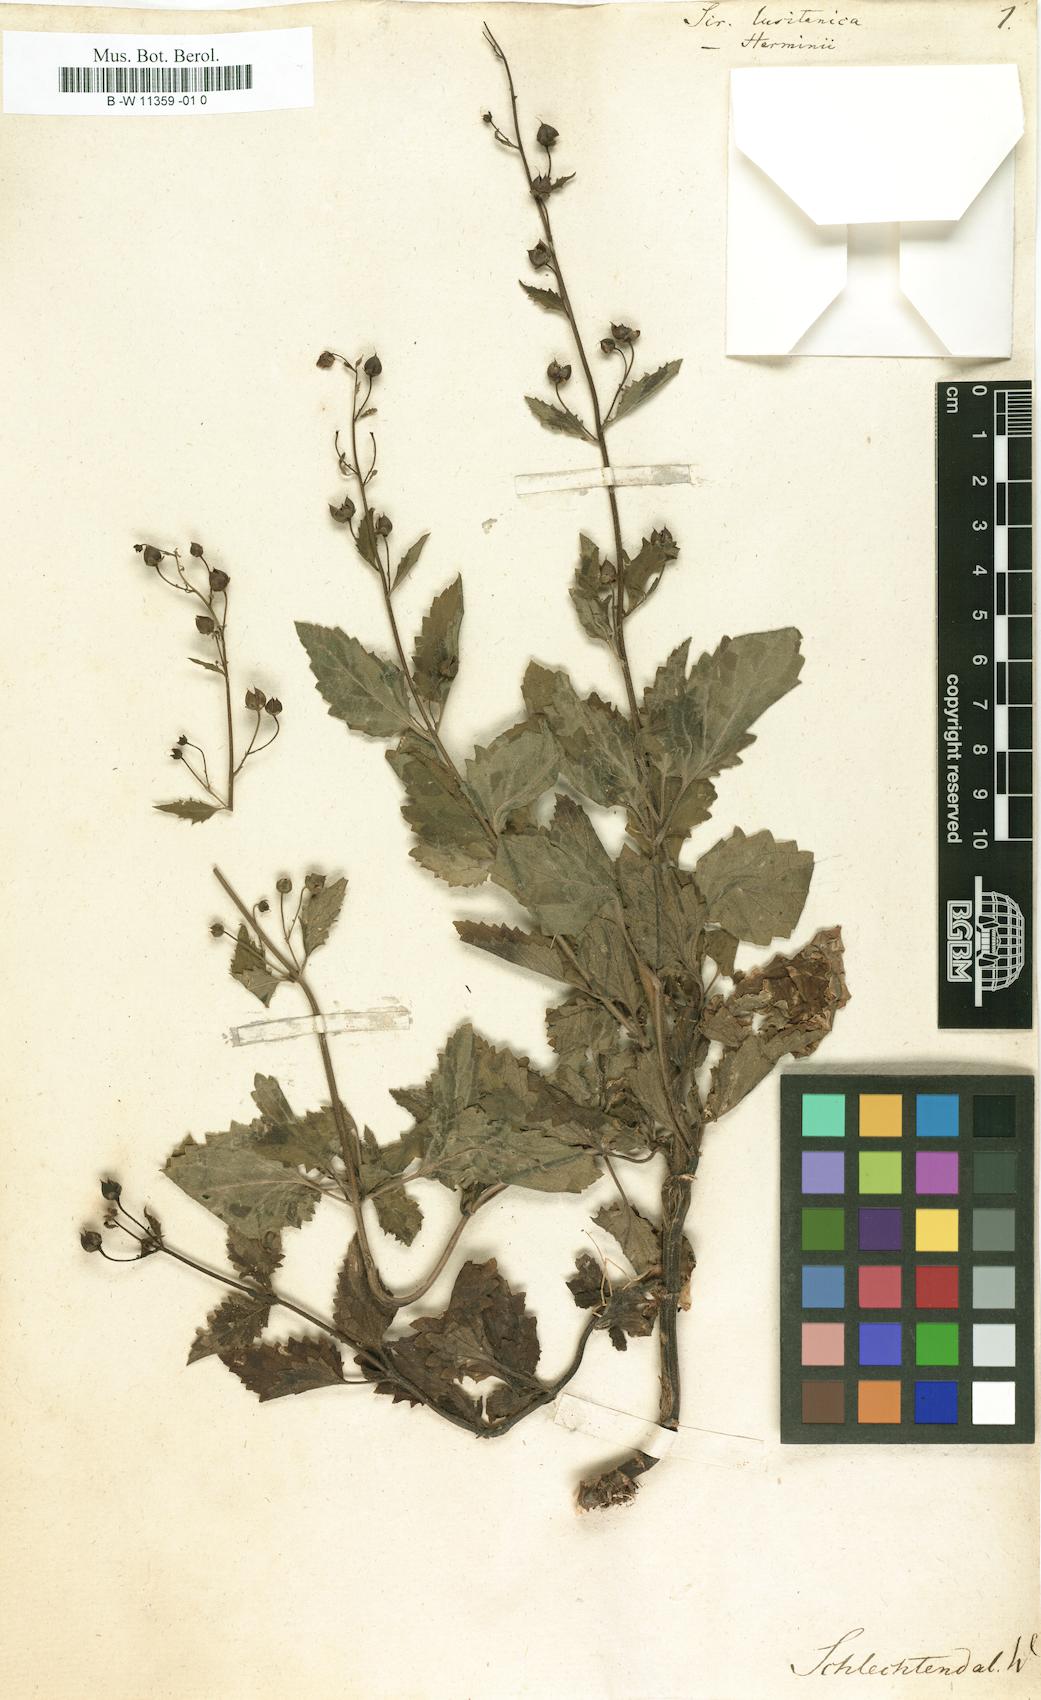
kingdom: Plantae
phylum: Tracheophyta
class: Magnoliopsida
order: Lamiales
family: Scrophulariaceae
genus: Scrophularia
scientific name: Scrophularia
